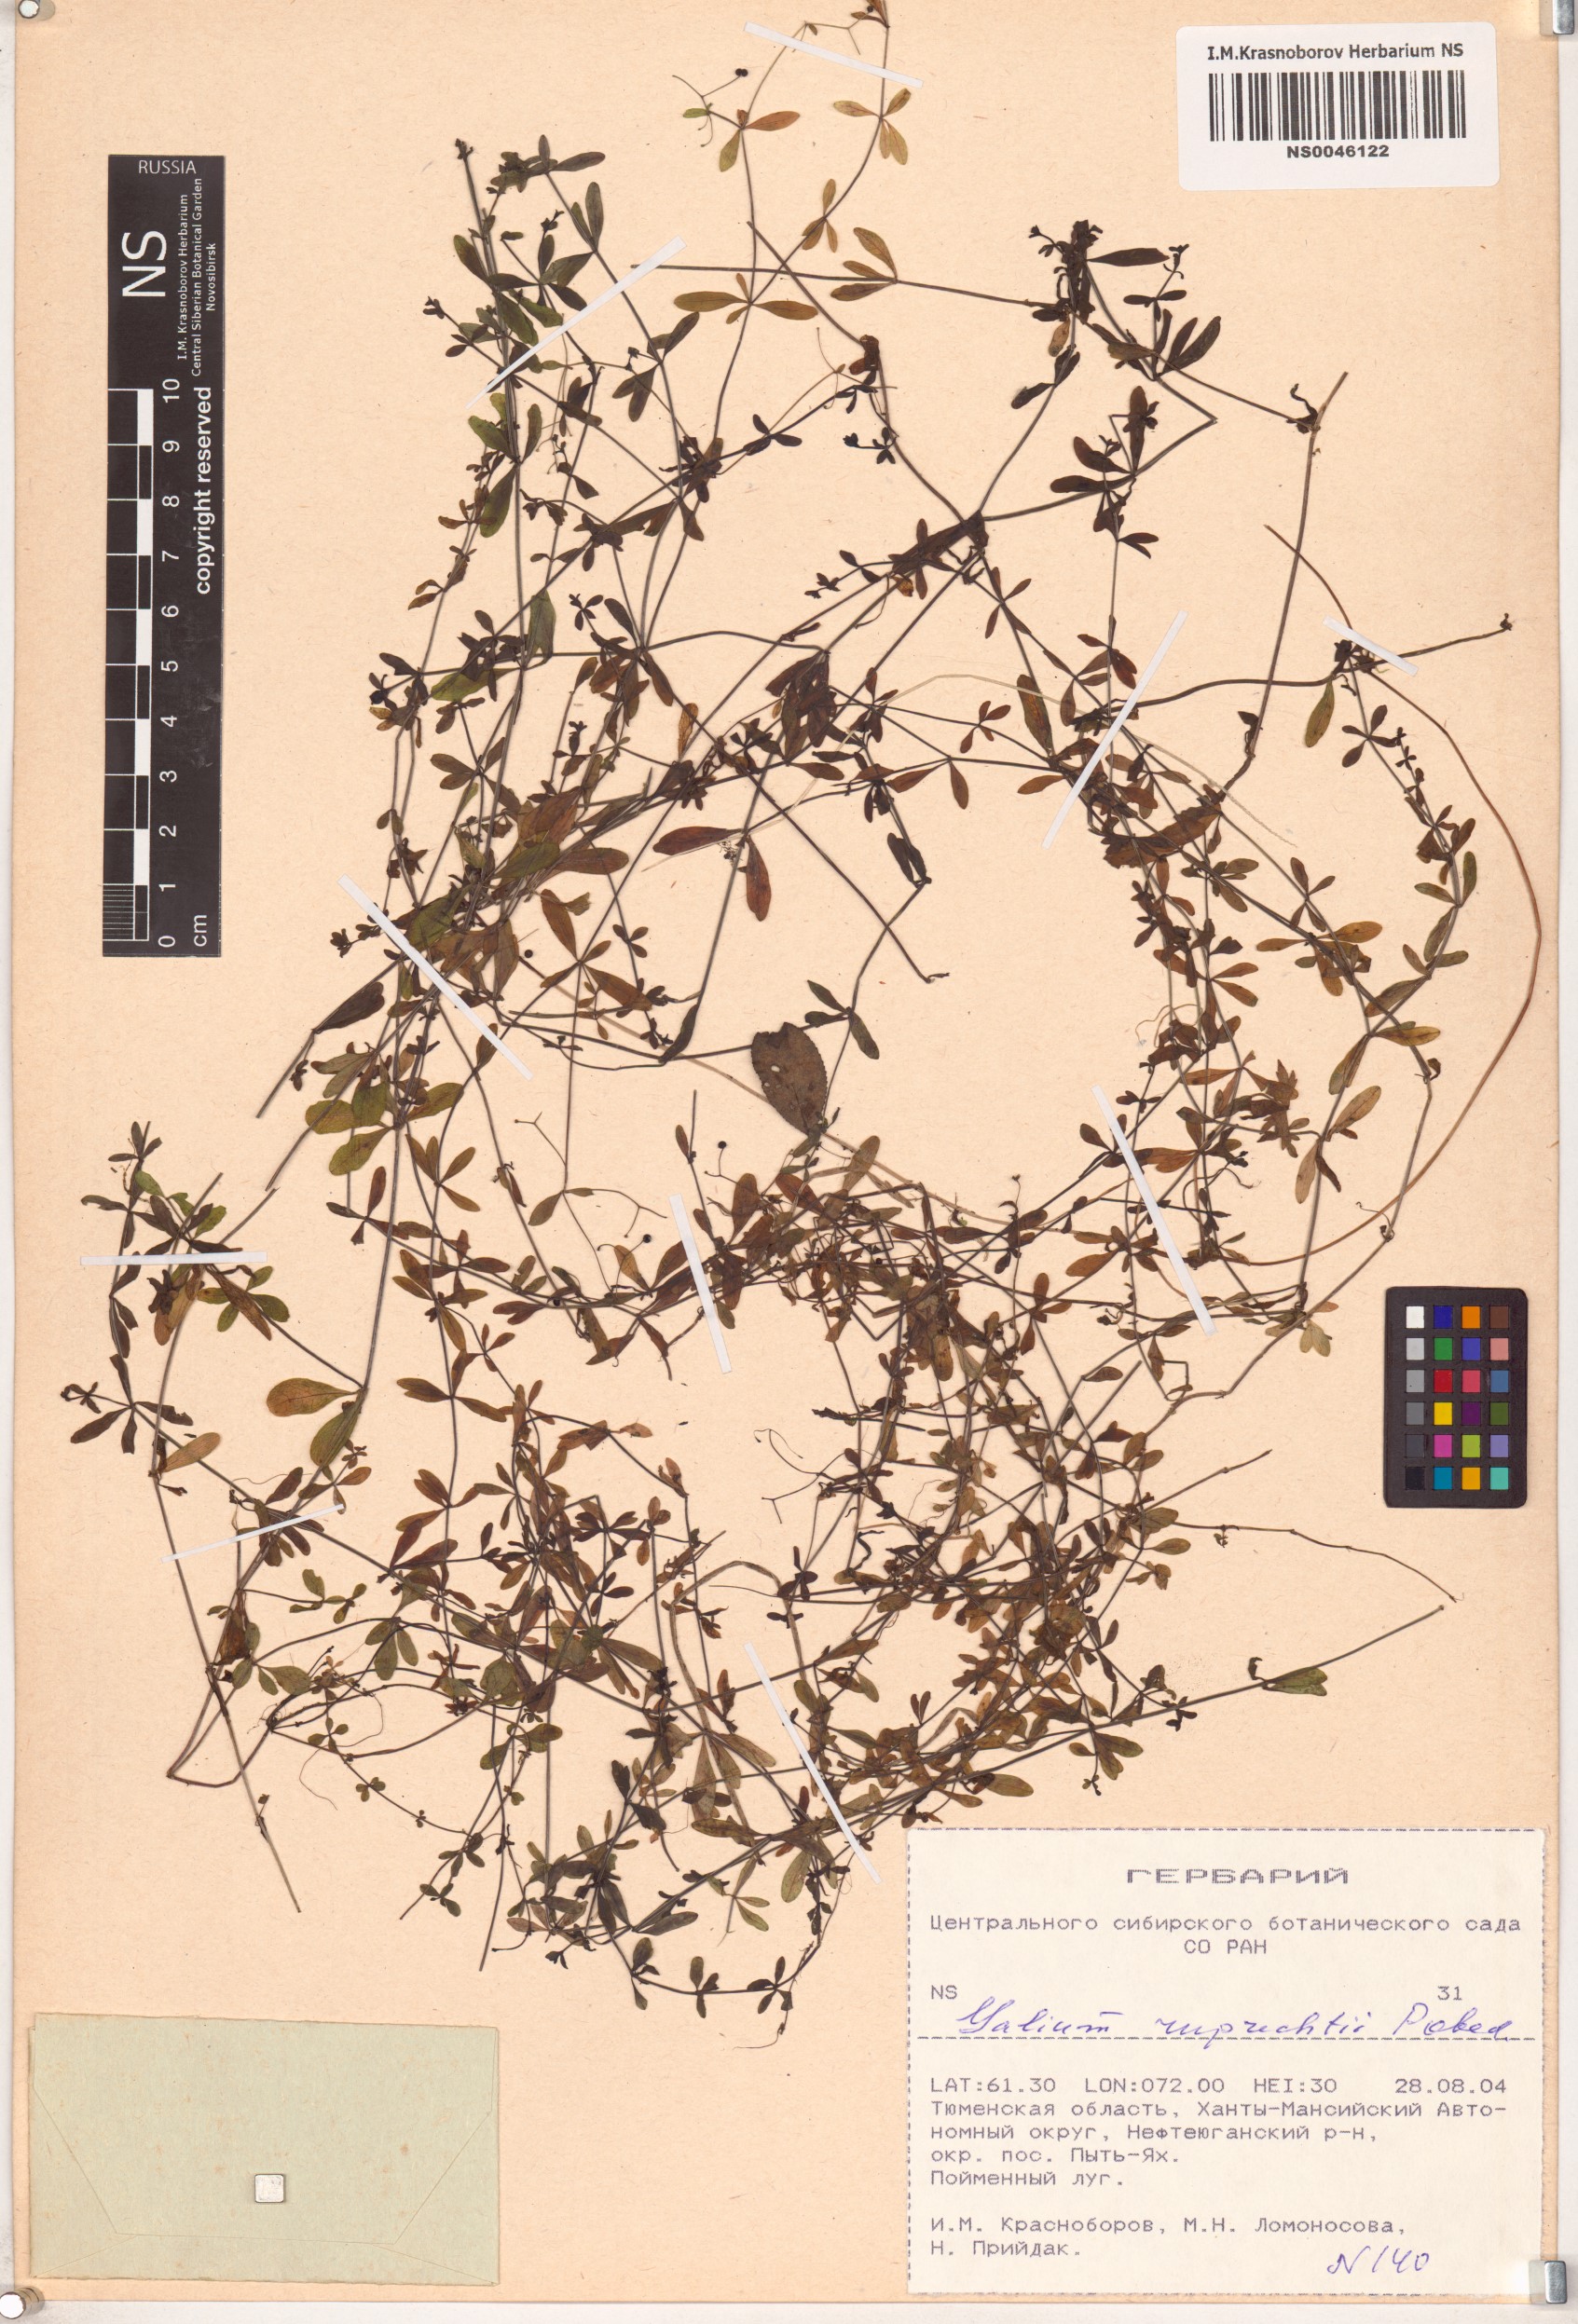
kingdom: Plantae
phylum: Tracheophyta
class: Magnoliopsida
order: Gentianales
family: Rubiaceae
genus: Galium
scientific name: Galium trifidum
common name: Small bedstraw
